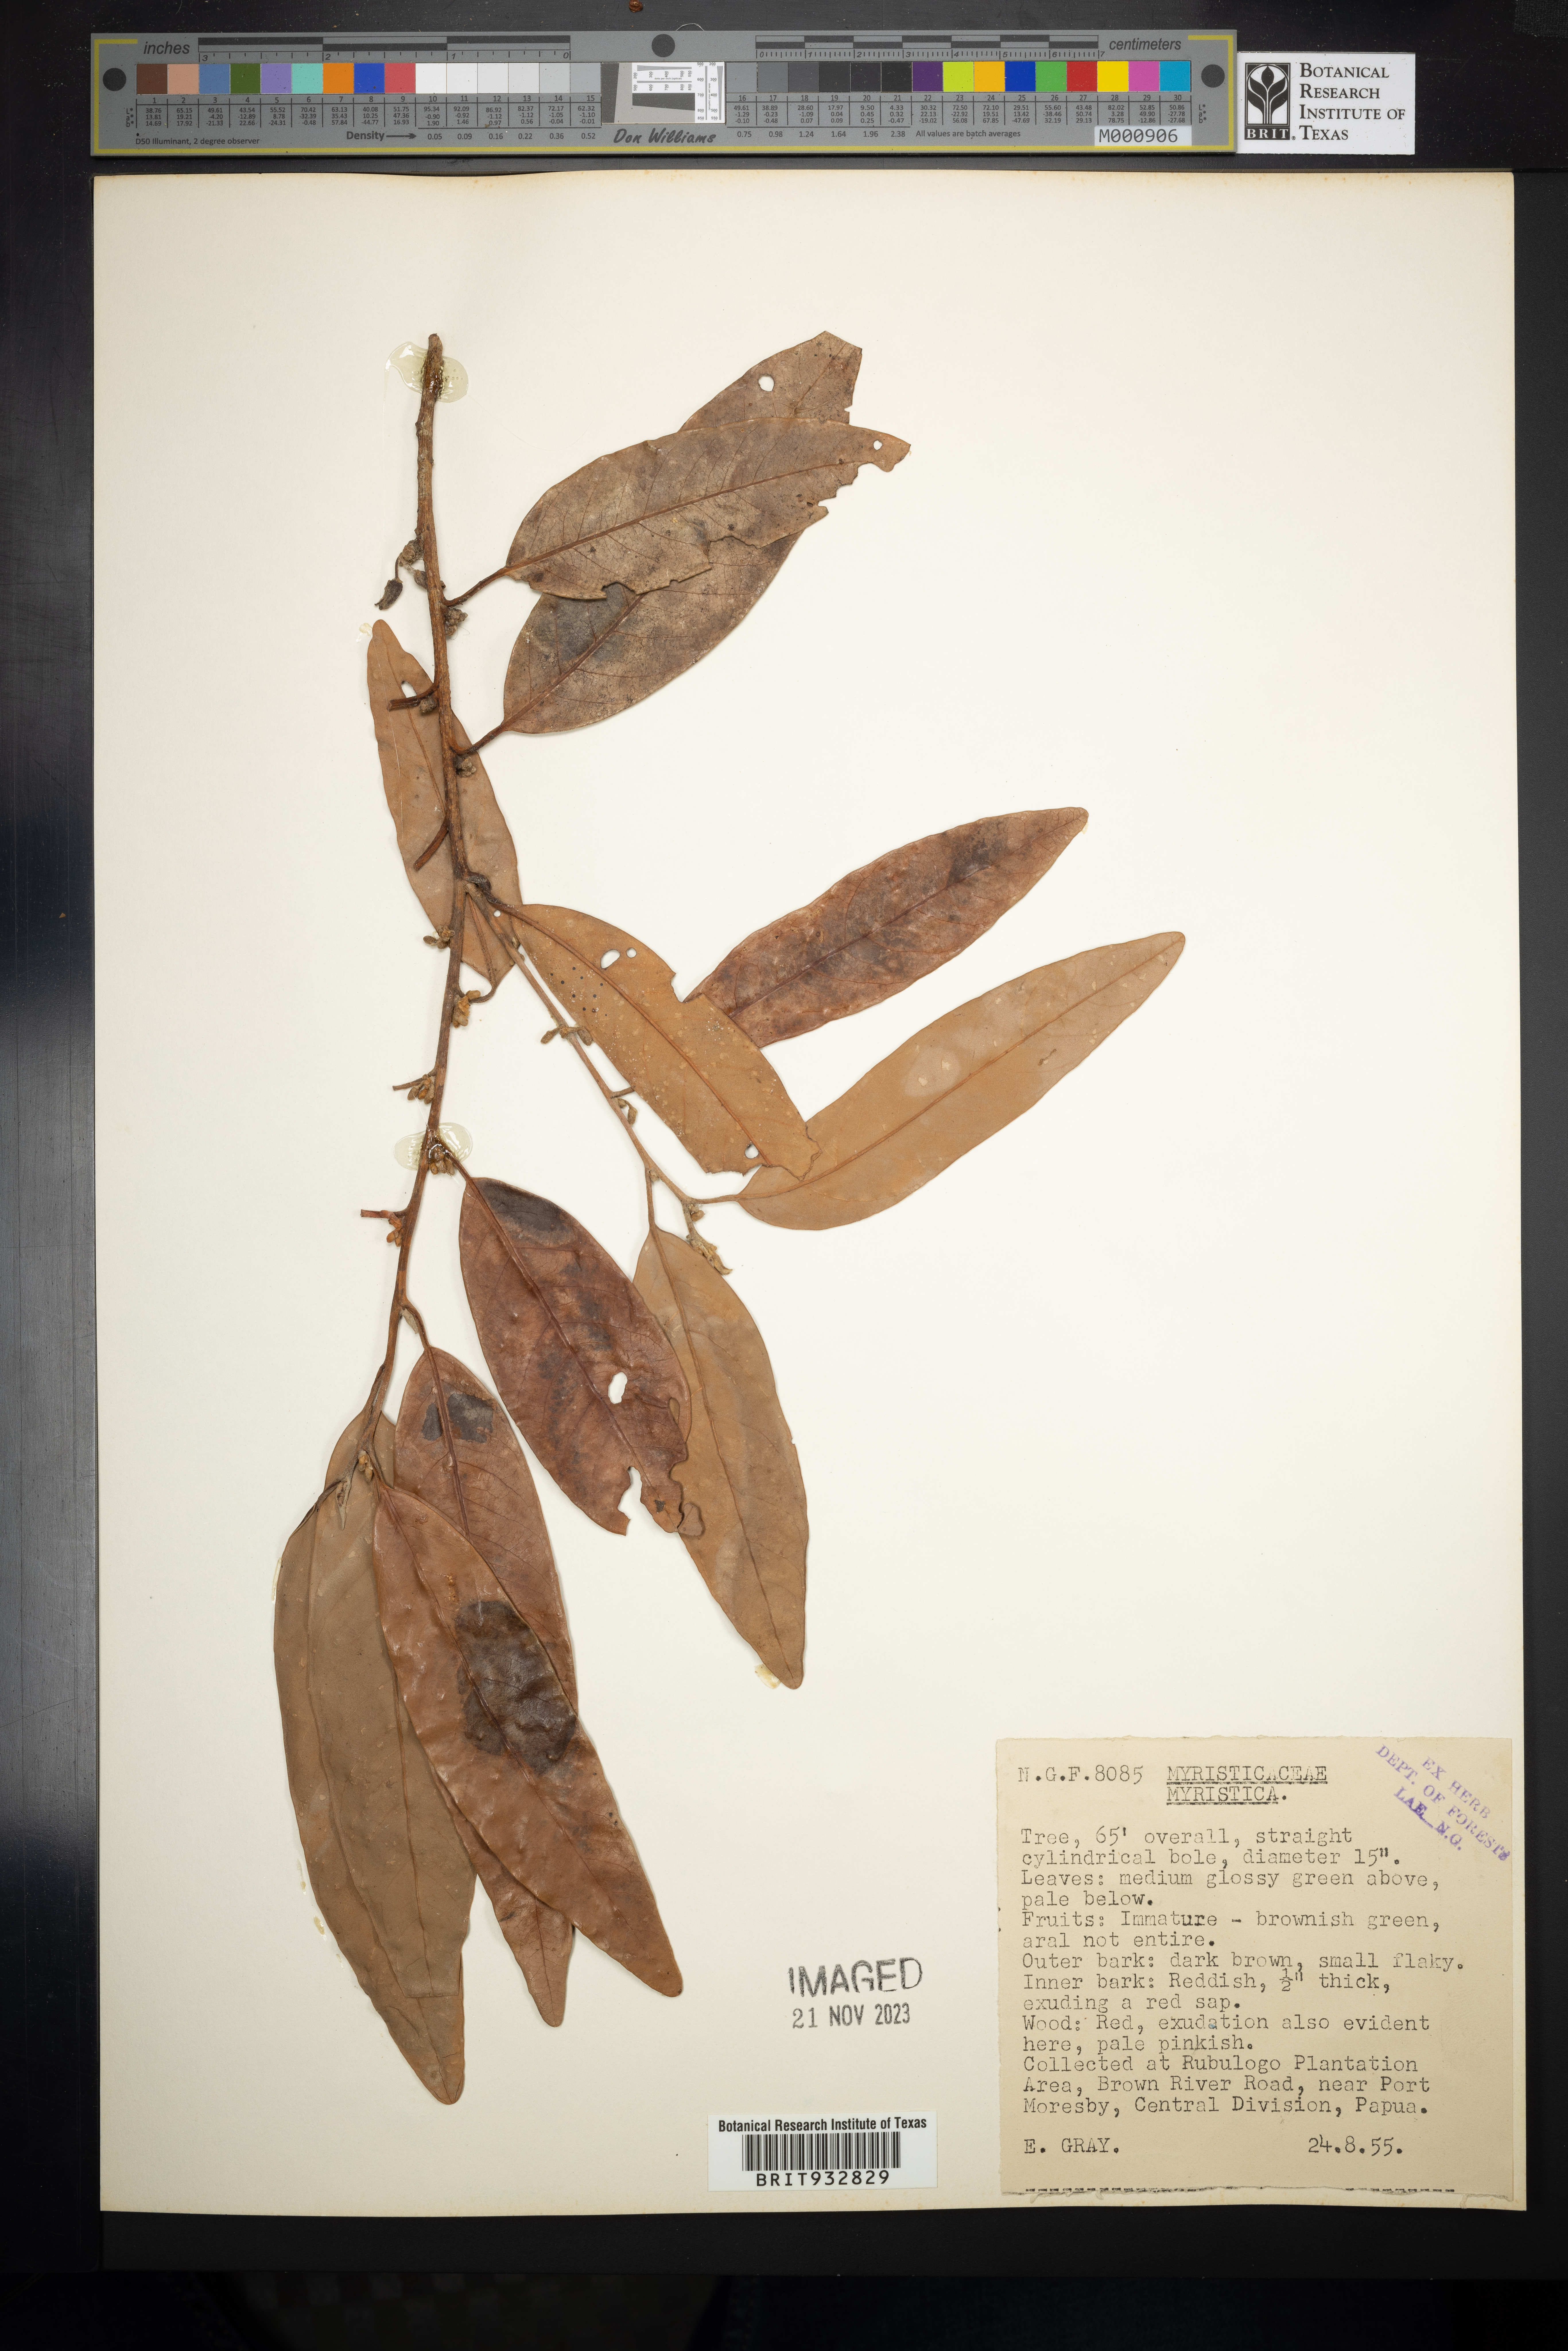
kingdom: Plantae
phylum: Tracheophyta
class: Magnoliopsida
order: Magnoliales
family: Myristicaceae
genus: Myristica
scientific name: Myristica
